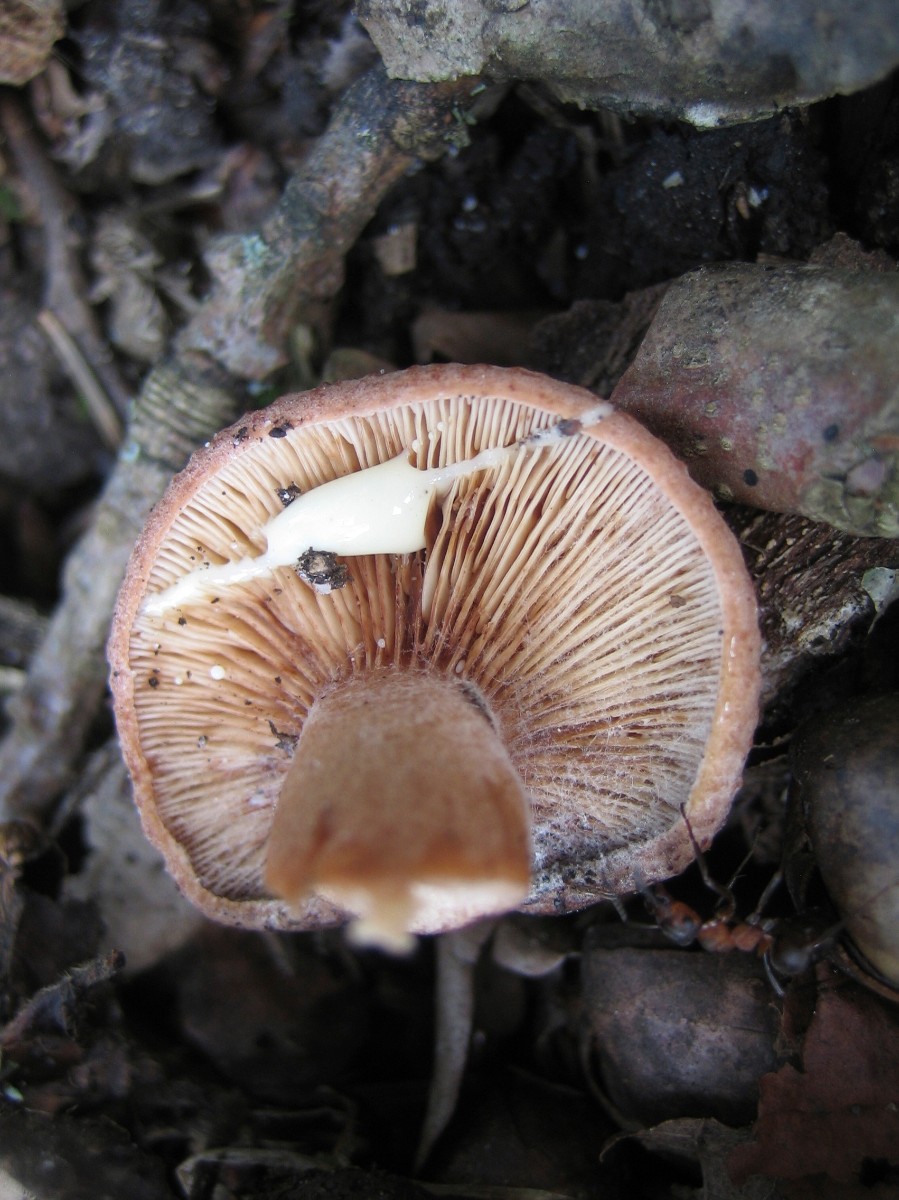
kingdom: Fungi
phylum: Basidiomycota
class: Agaricomycetes
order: Russulales
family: Russulaceae
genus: Lactarius
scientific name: Lactarius quietus
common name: ege-mælkehat
